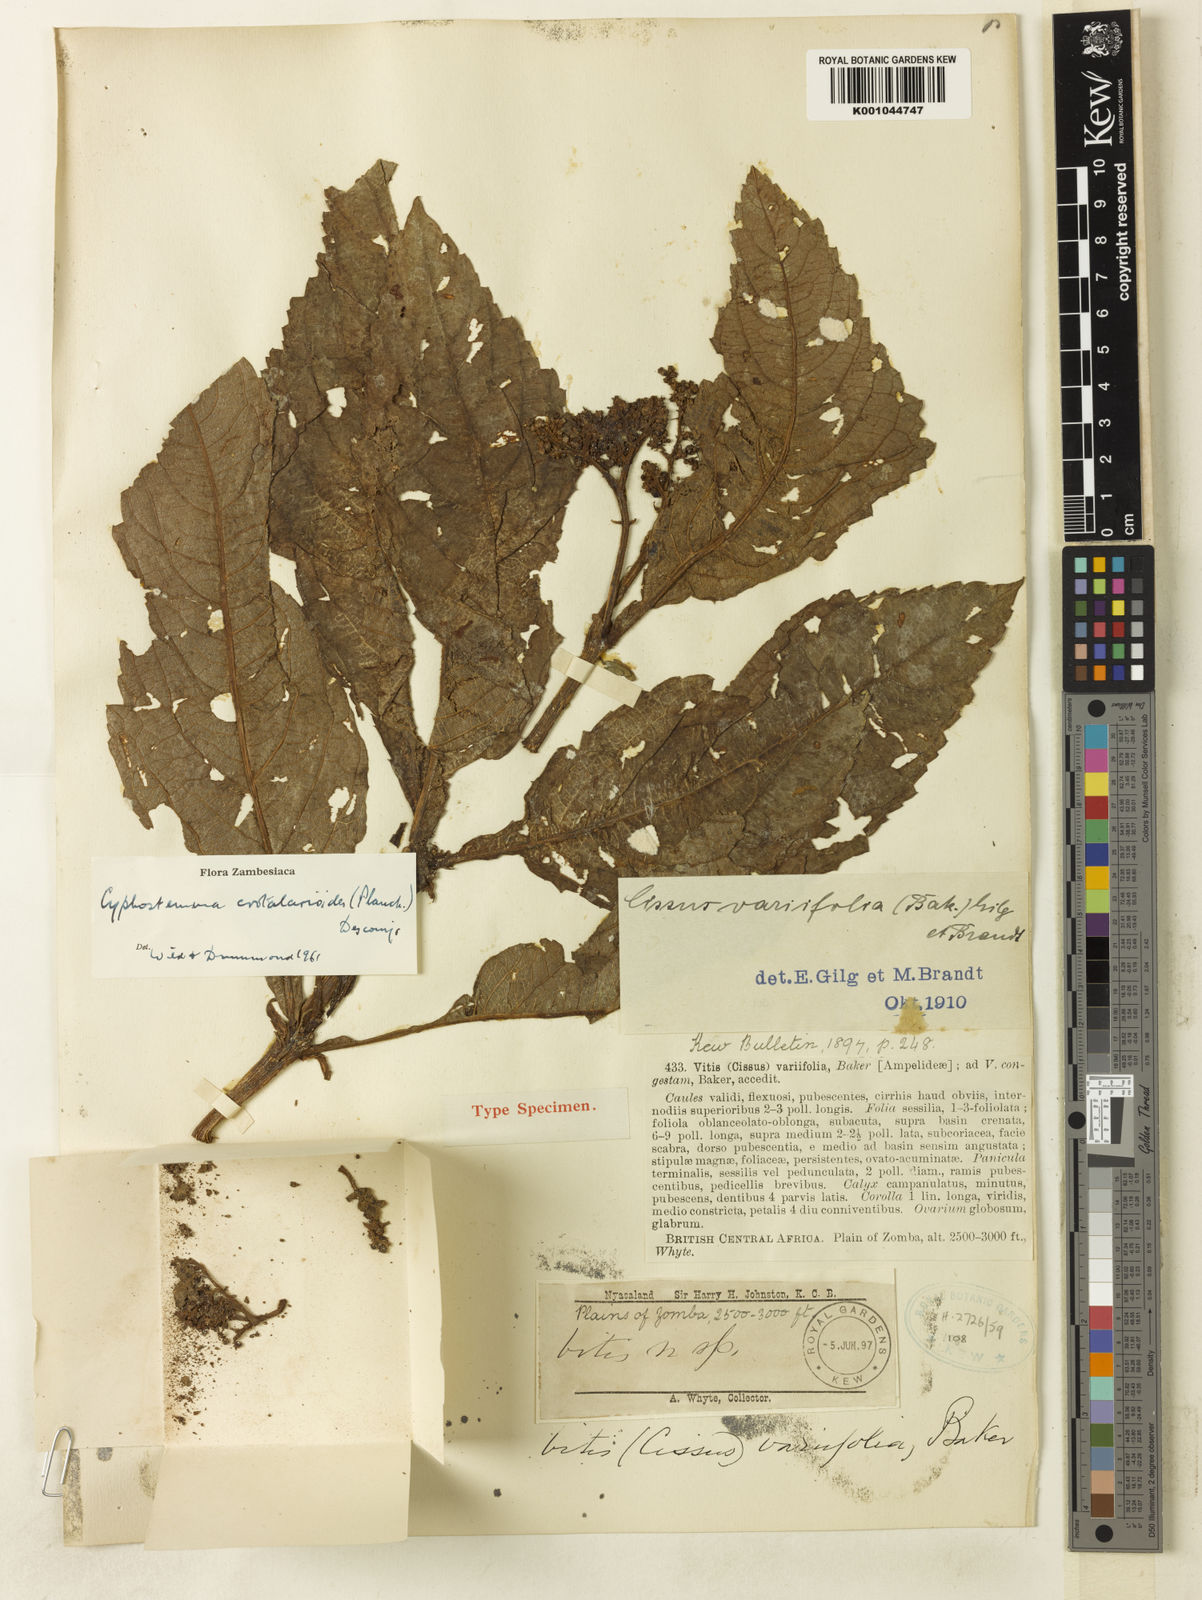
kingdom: Plantae
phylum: Tracheophyta
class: Magnoliopsida
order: Vitales
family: Vitaceae
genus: Cyphostemma
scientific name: Cyphostemma crotalarioides
